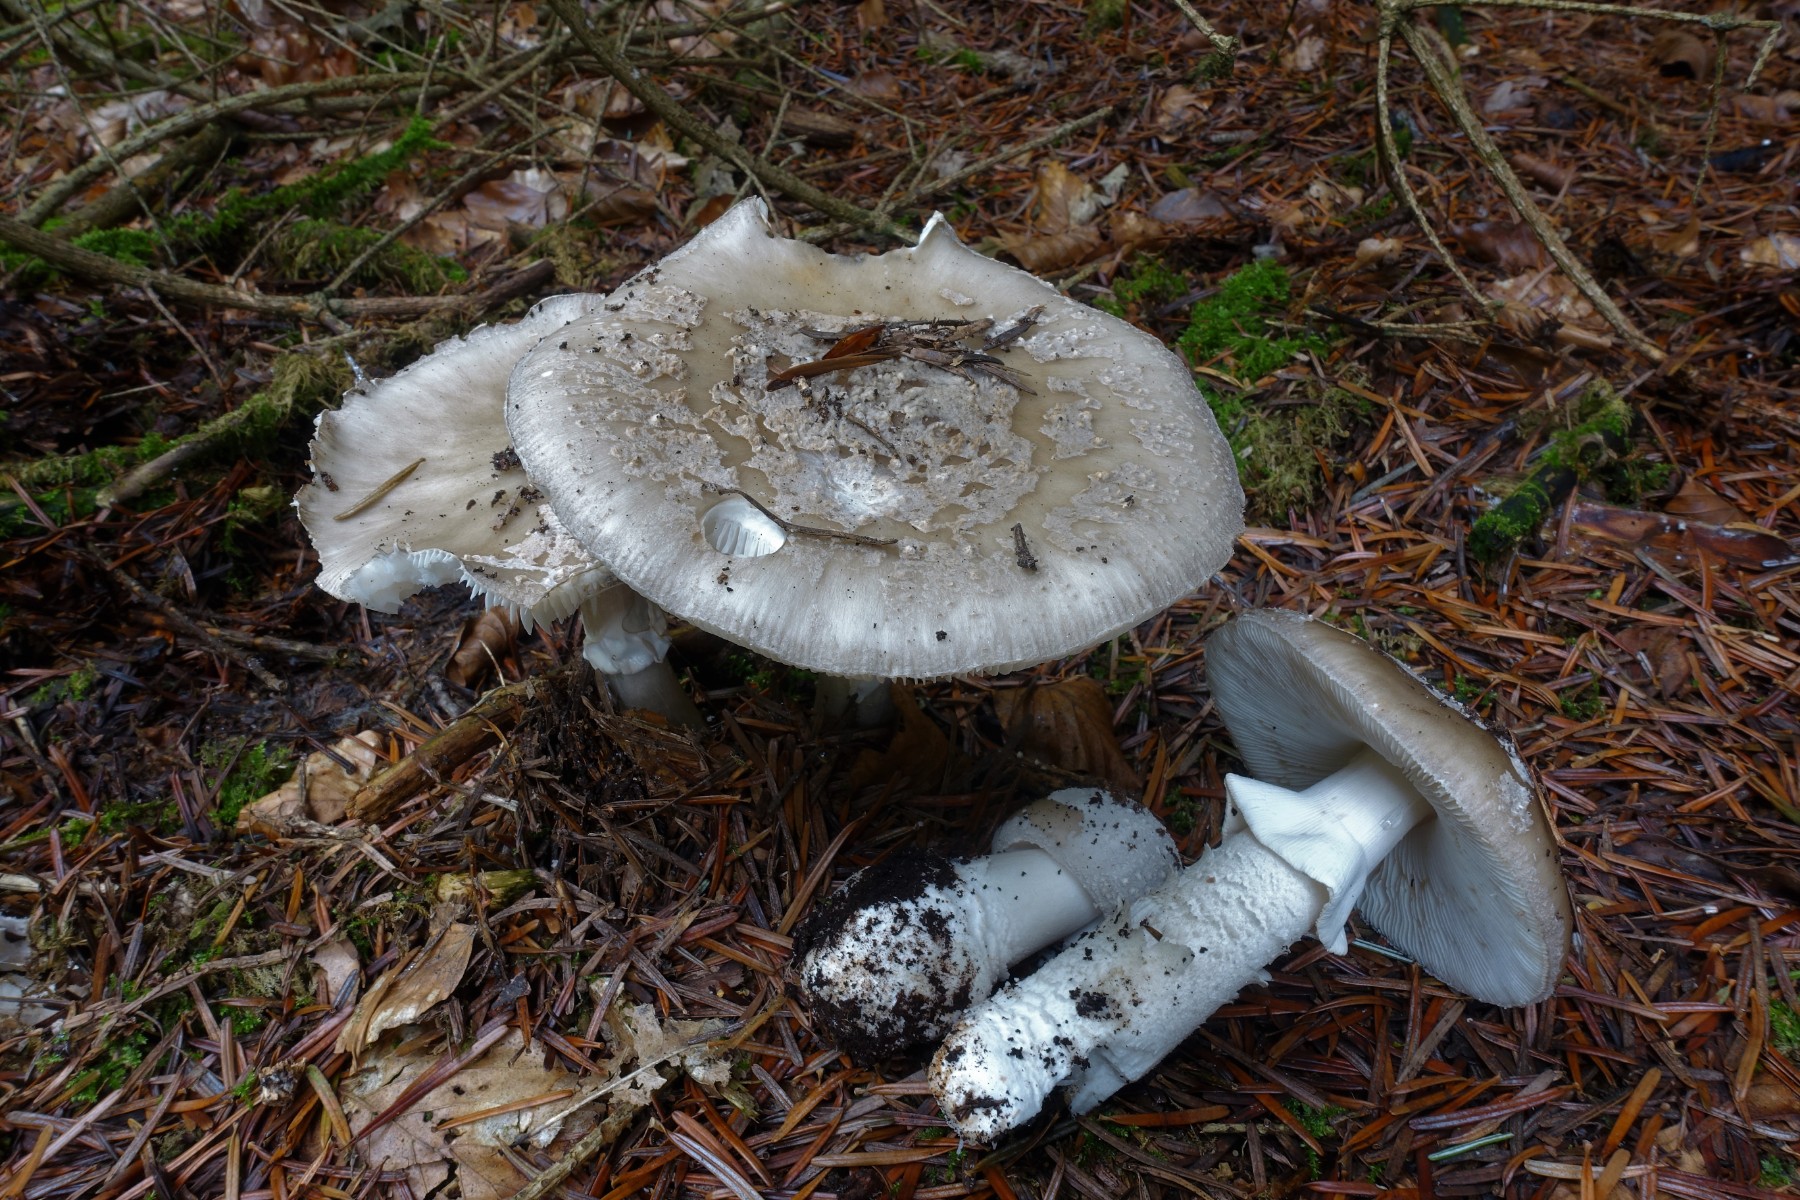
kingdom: Fungi
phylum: Basidiomycota
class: Agaricomycetes
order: Agaricales
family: Amanitaceae
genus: Amanita
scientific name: Amanita
